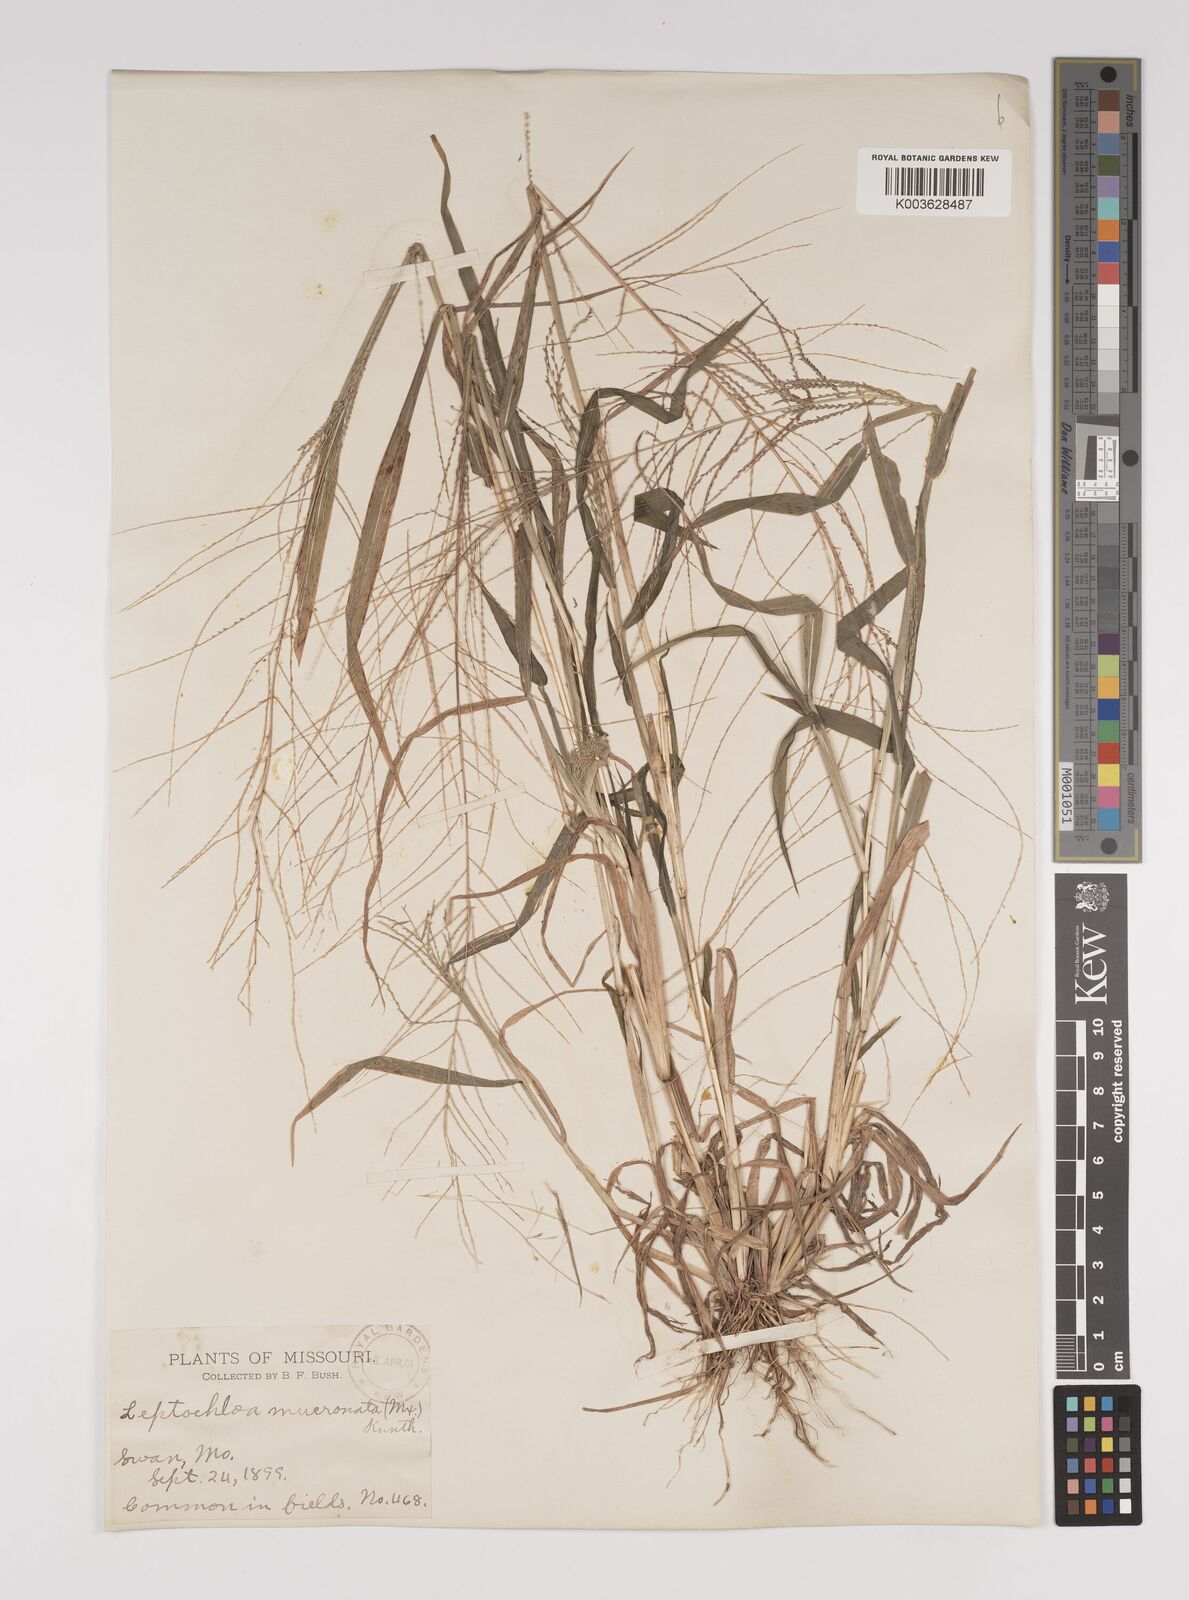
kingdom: Plantae
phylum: Tracheophyta
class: Liliopsida
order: Poales
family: Poaceae
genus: Leptochloa
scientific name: Leptochloa panicea
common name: Mucronate sprangletop
